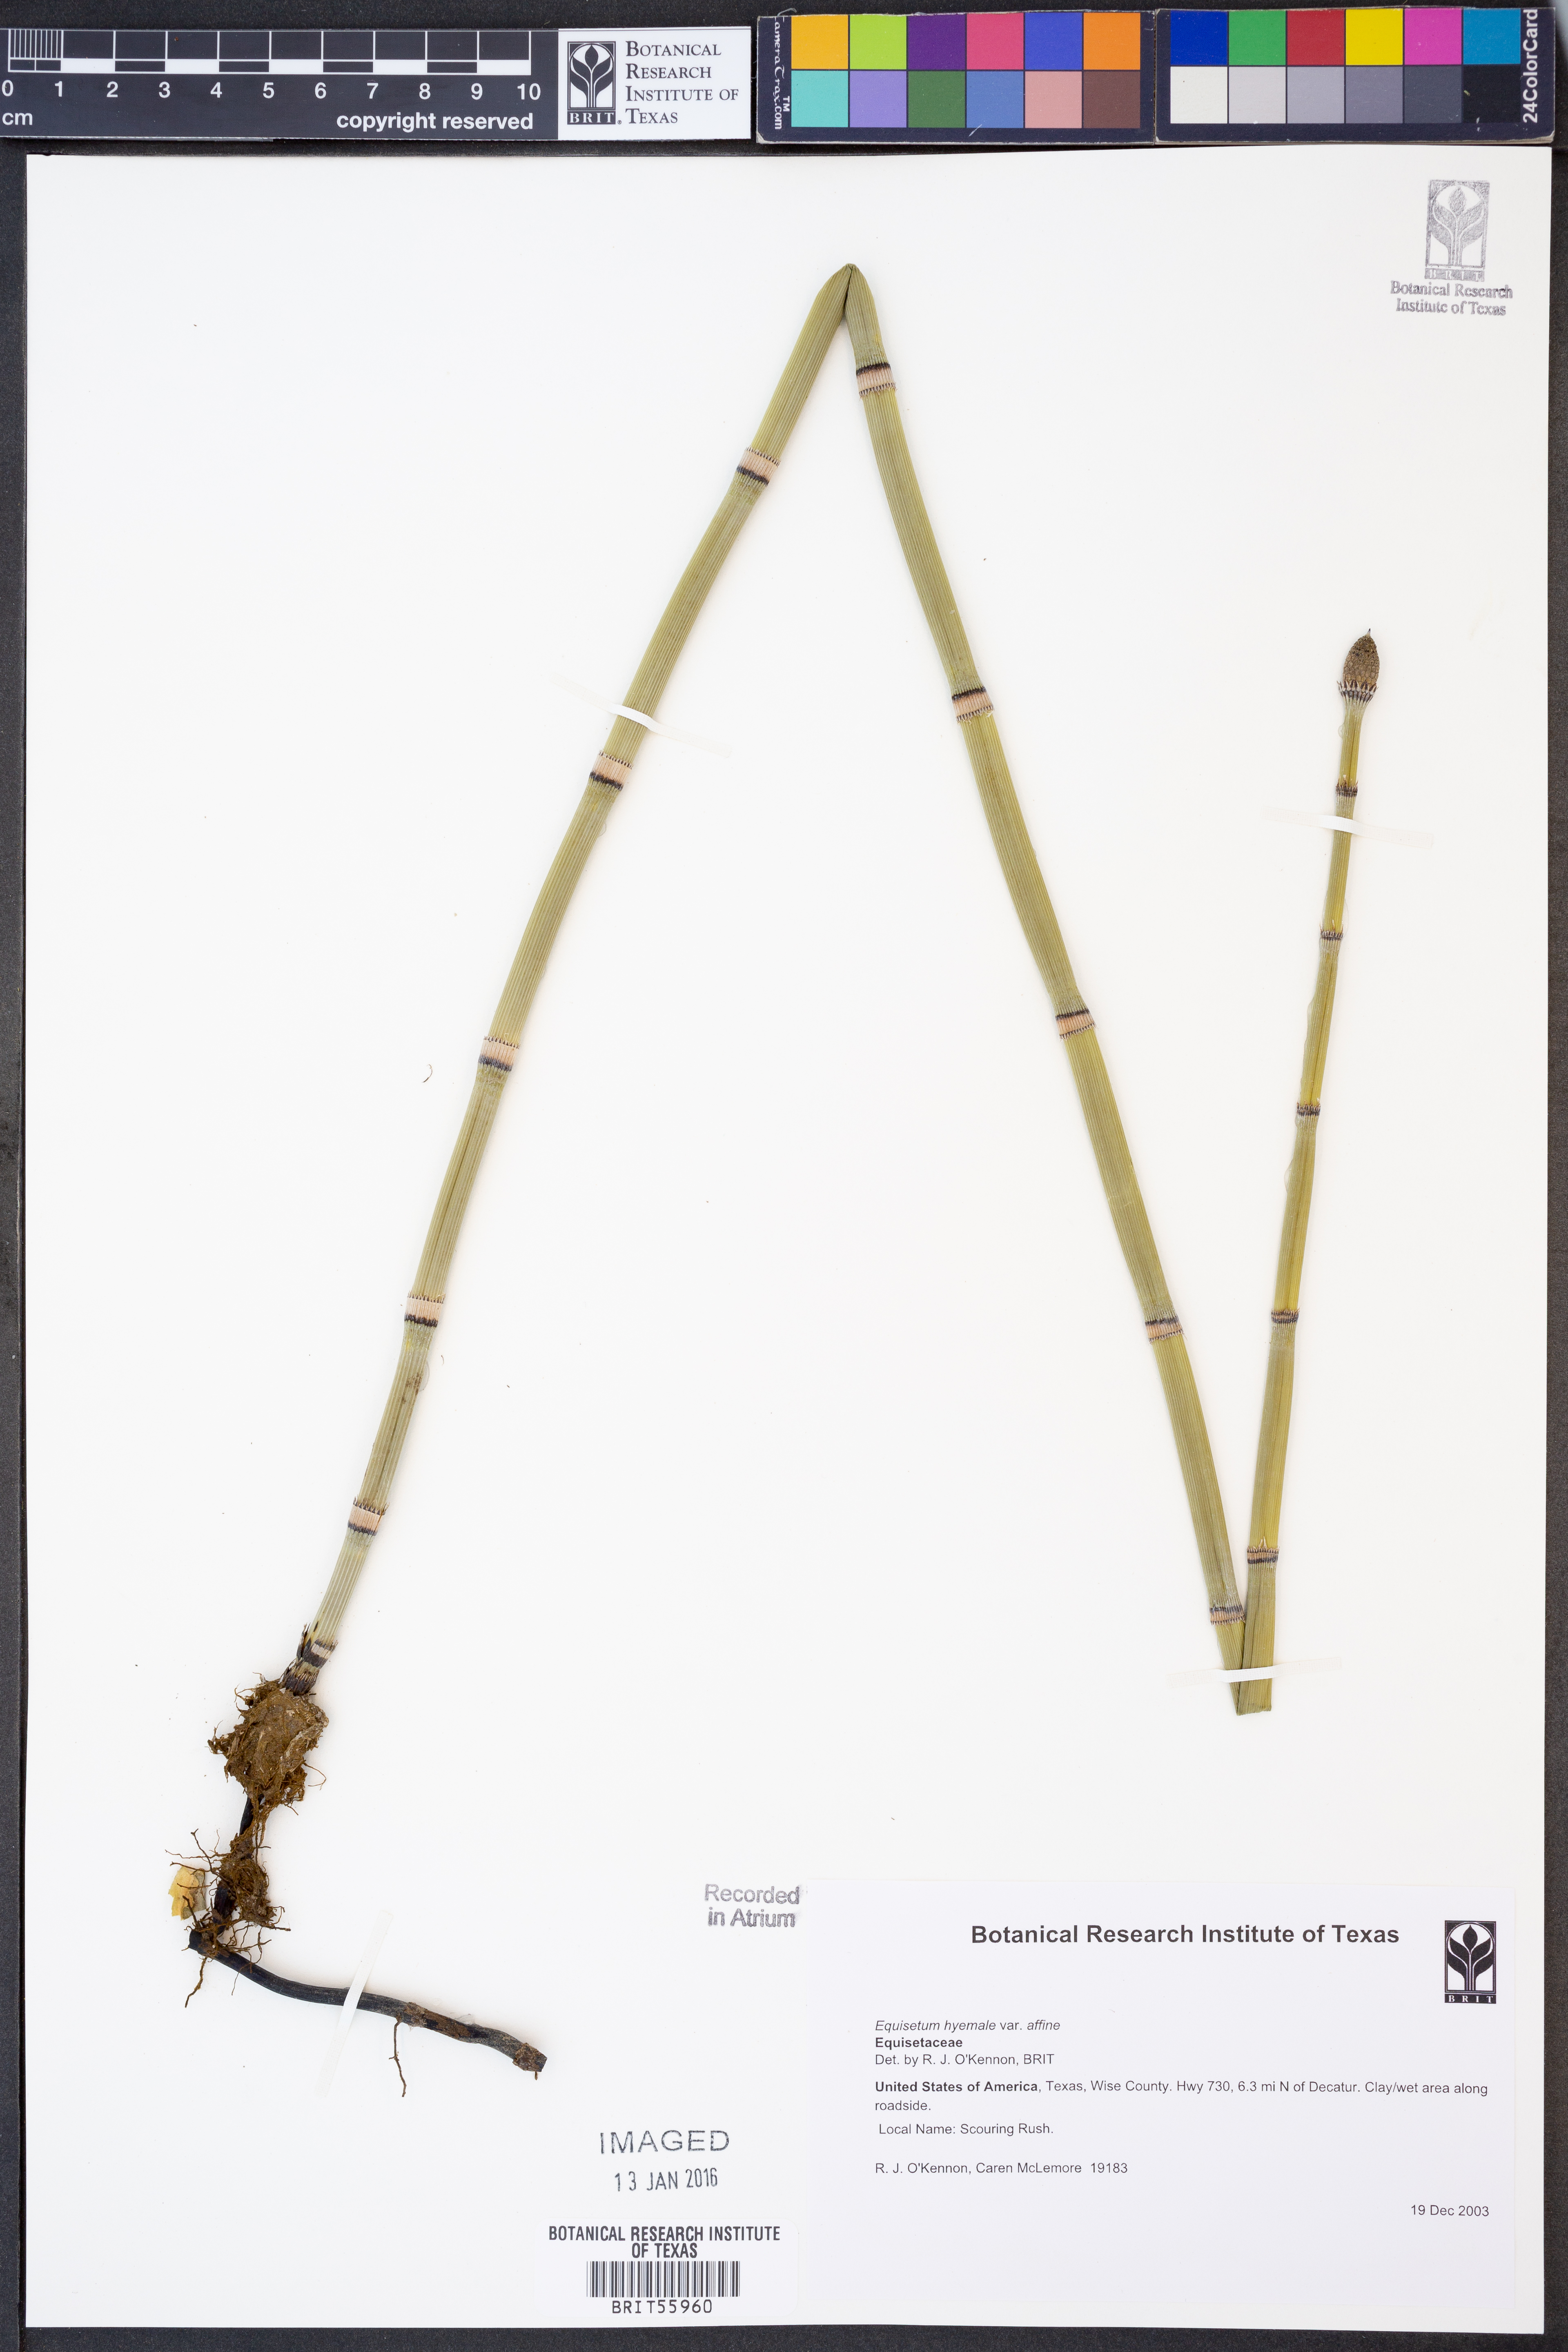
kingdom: Plantae
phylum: Tracheophyta
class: Polypodiopsida
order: Equisetales
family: Equisetaceae
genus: Equisetum
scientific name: Equisetum praealtum
